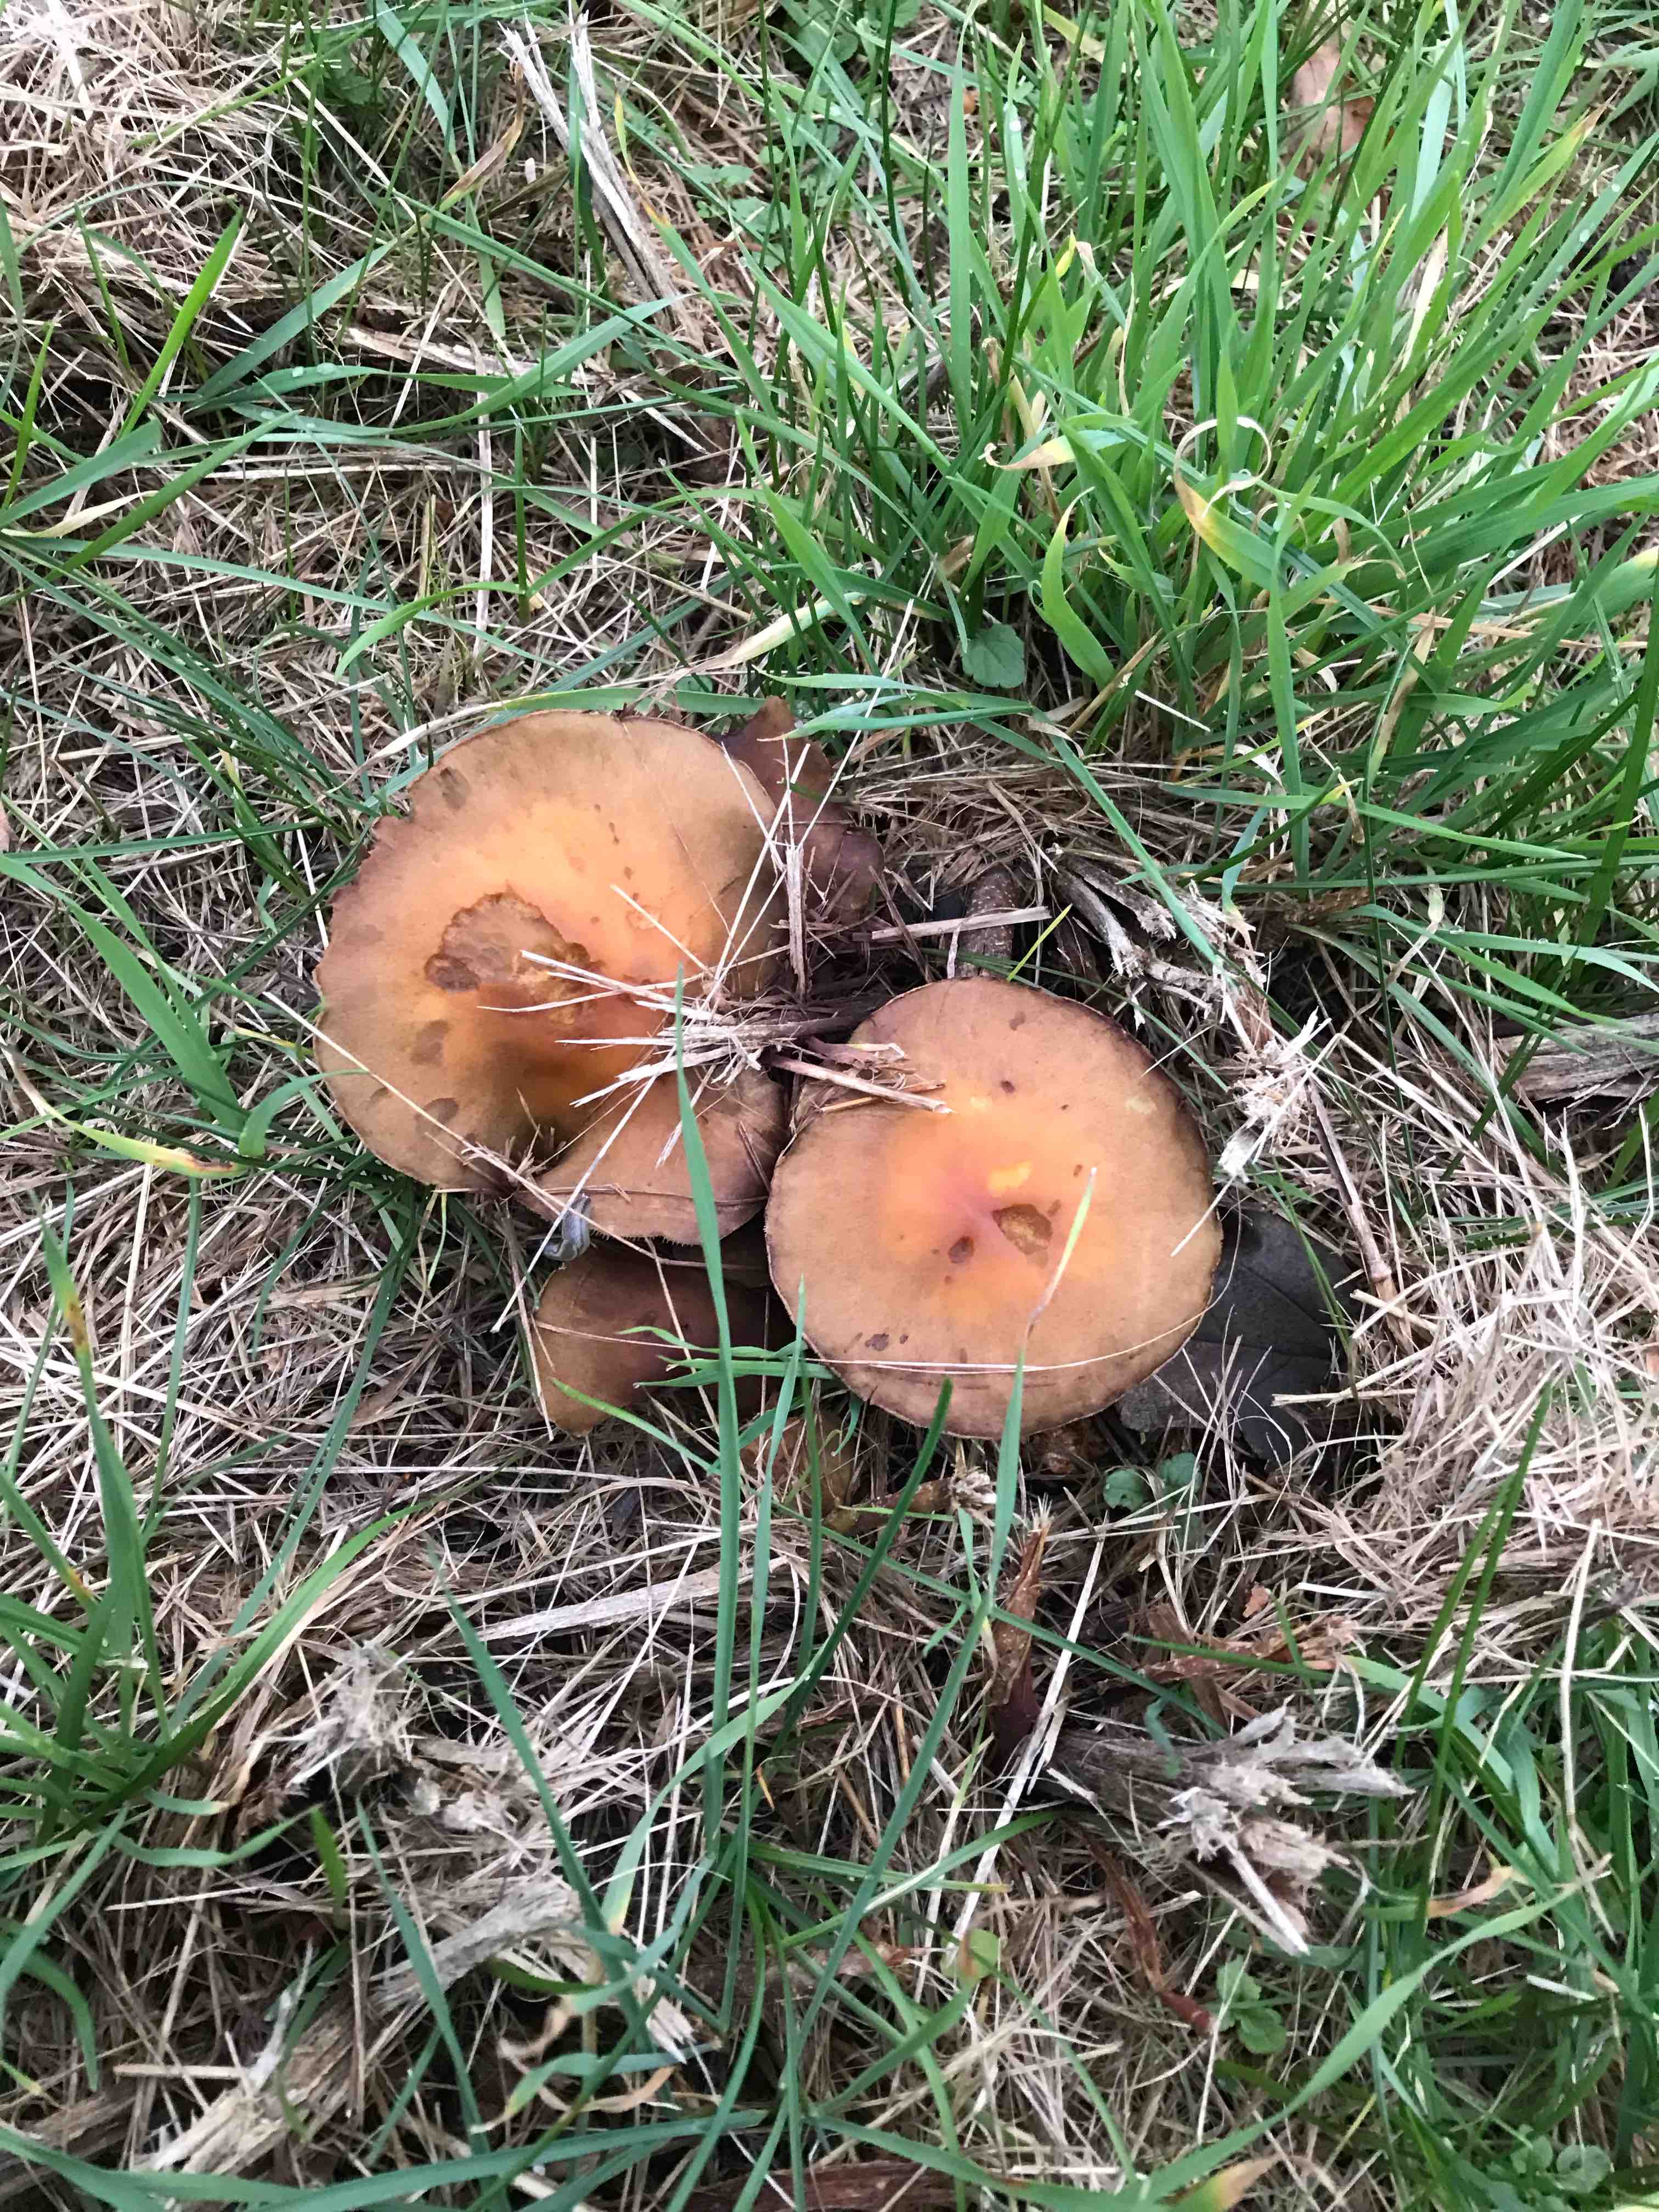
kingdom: Fungi
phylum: Basidiomycota
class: Agaricomycetes
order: Agaricales
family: Strophariaceae
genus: Hypholoma
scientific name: Hypholoma fasciculare
